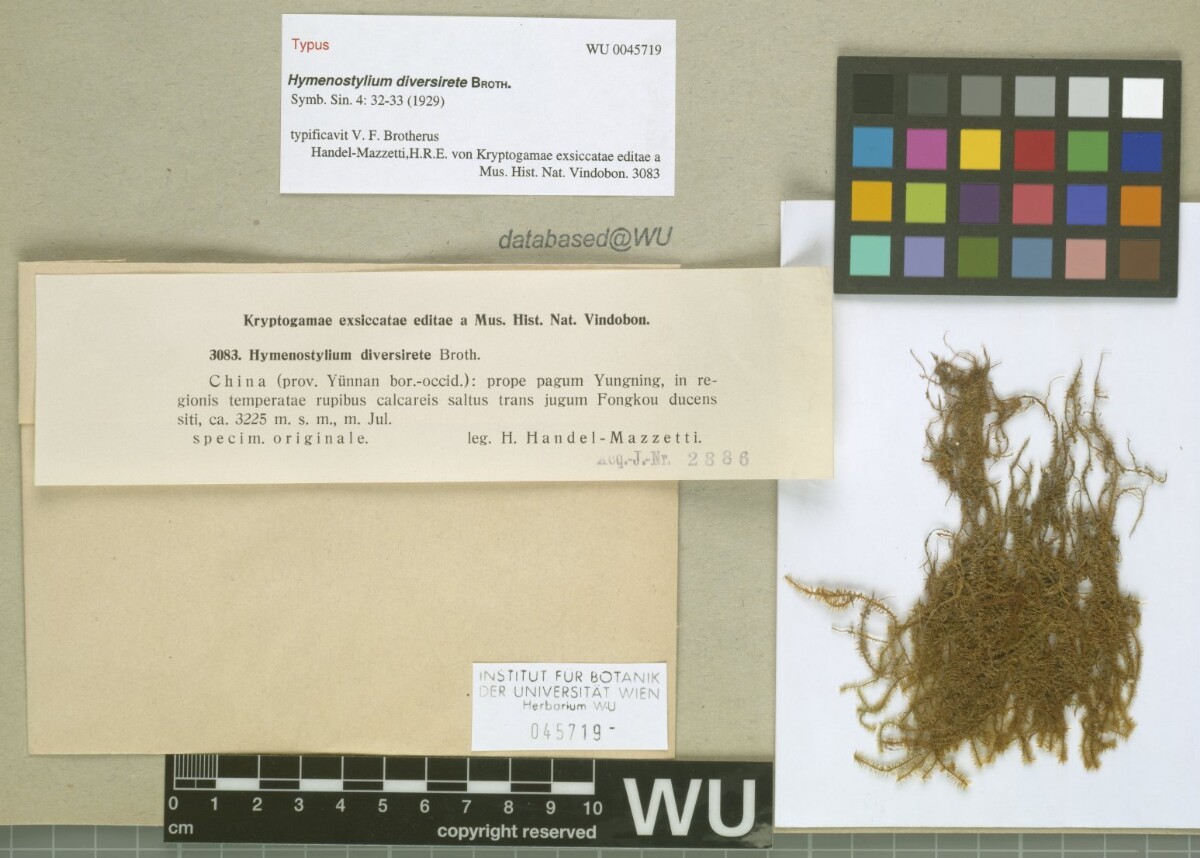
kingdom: Plantae
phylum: Bryophyta
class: Bryopsida
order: Pottiales
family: Pottiaceae
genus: Reimersia
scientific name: Reimersia diversiretis
